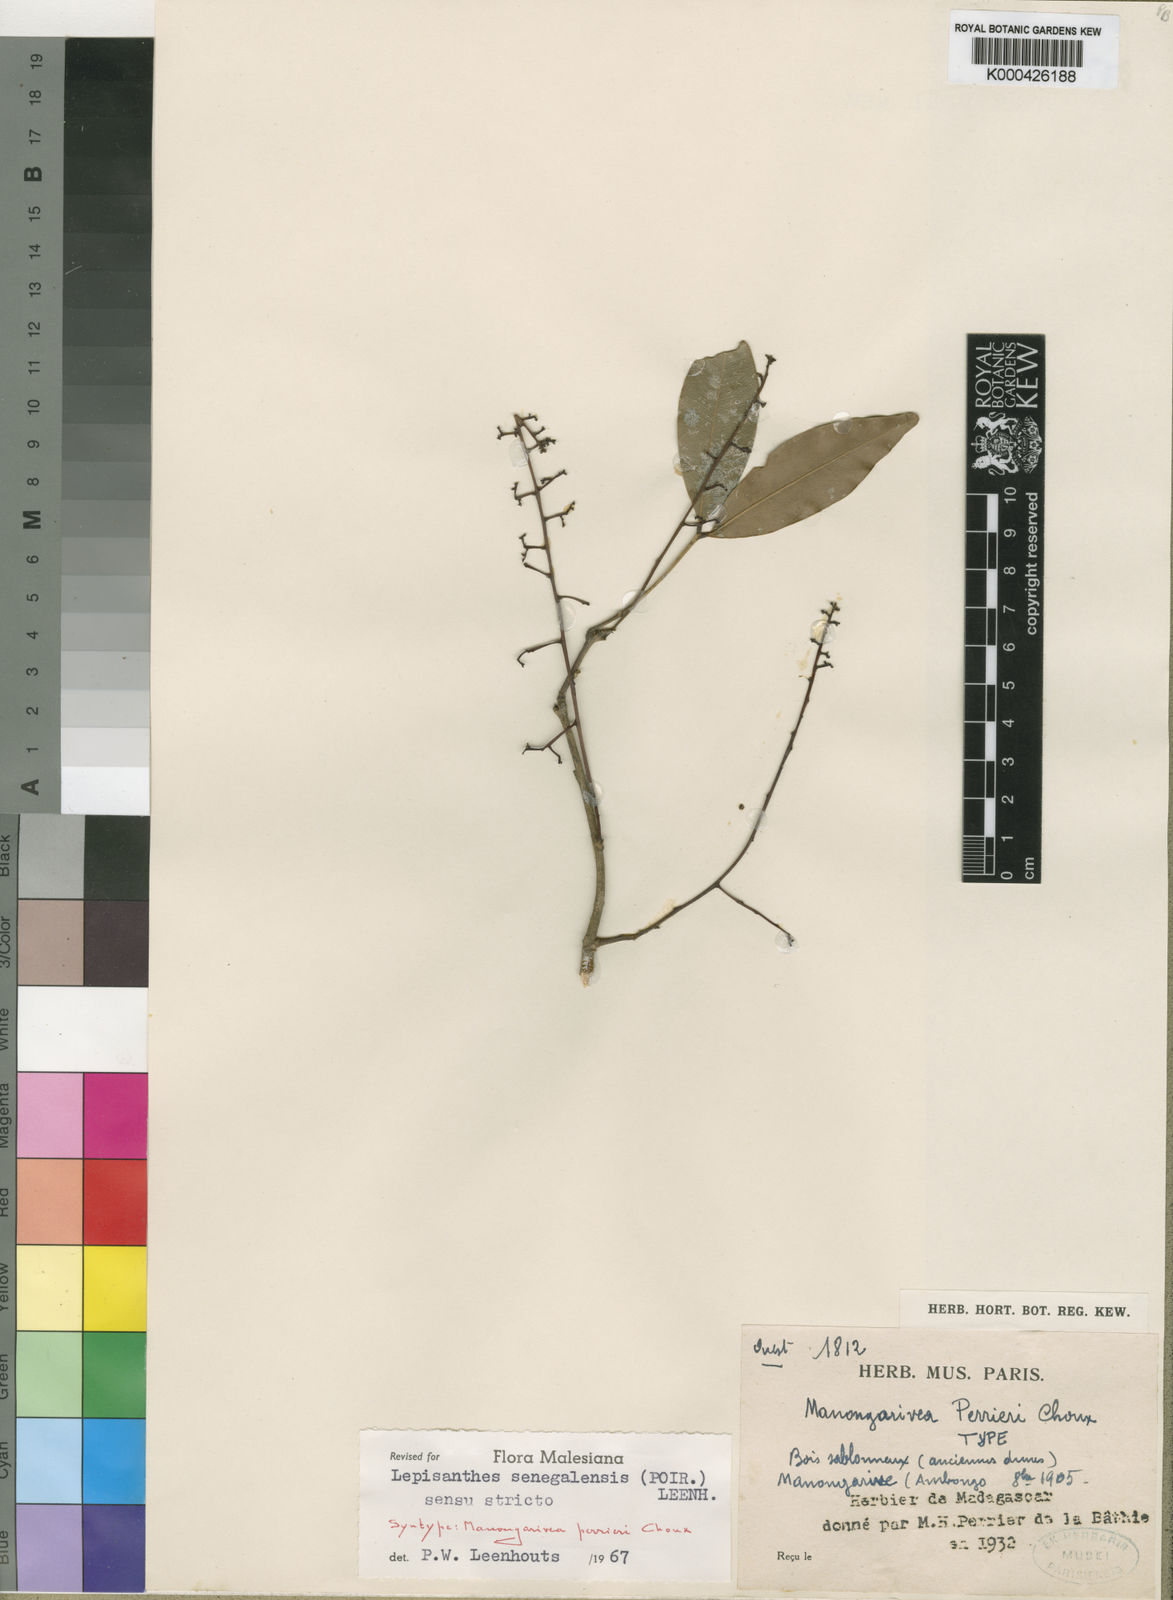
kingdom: Plantae
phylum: Tracheophyta
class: Magnoliopsida
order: Sapindales
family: Sapindaceae
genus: Lepisanthes
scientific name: Lepisanthes senegalensis
